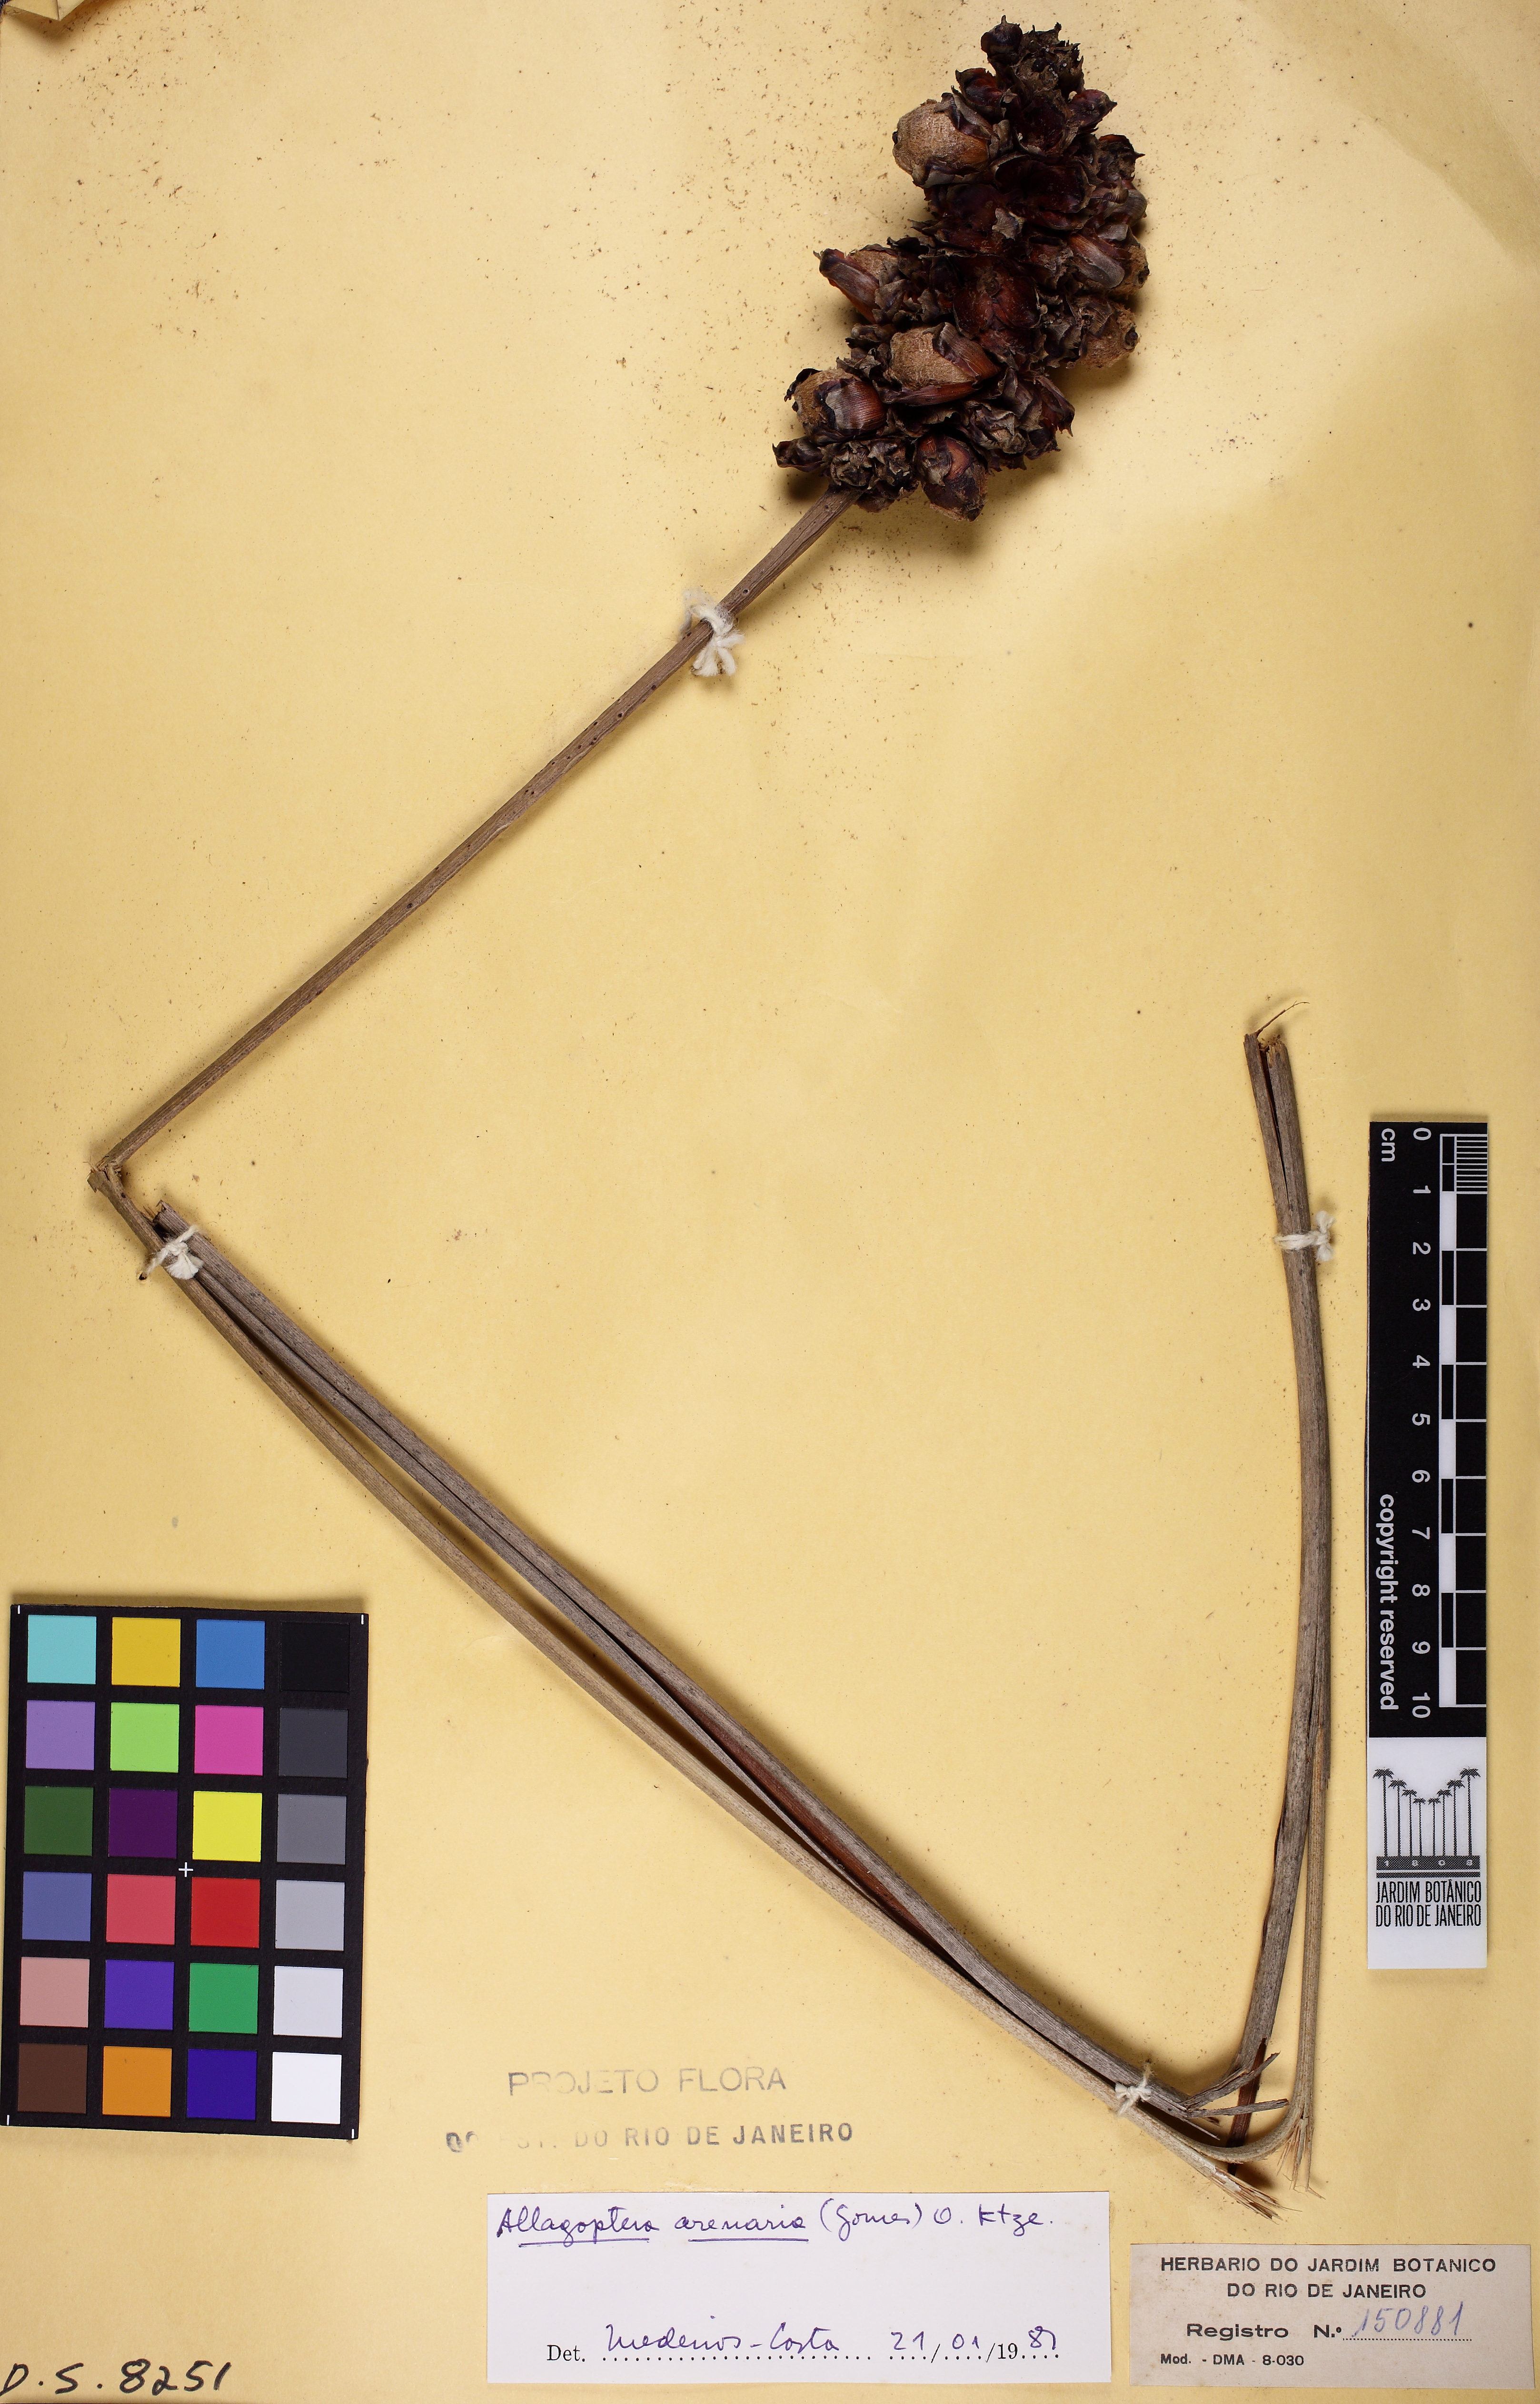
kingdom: Plantae
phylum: Tracheophyta
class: Liliopsida
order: Arecales
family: Arecaceae
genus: Allagoptera
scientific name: Allagoptera arenaria
